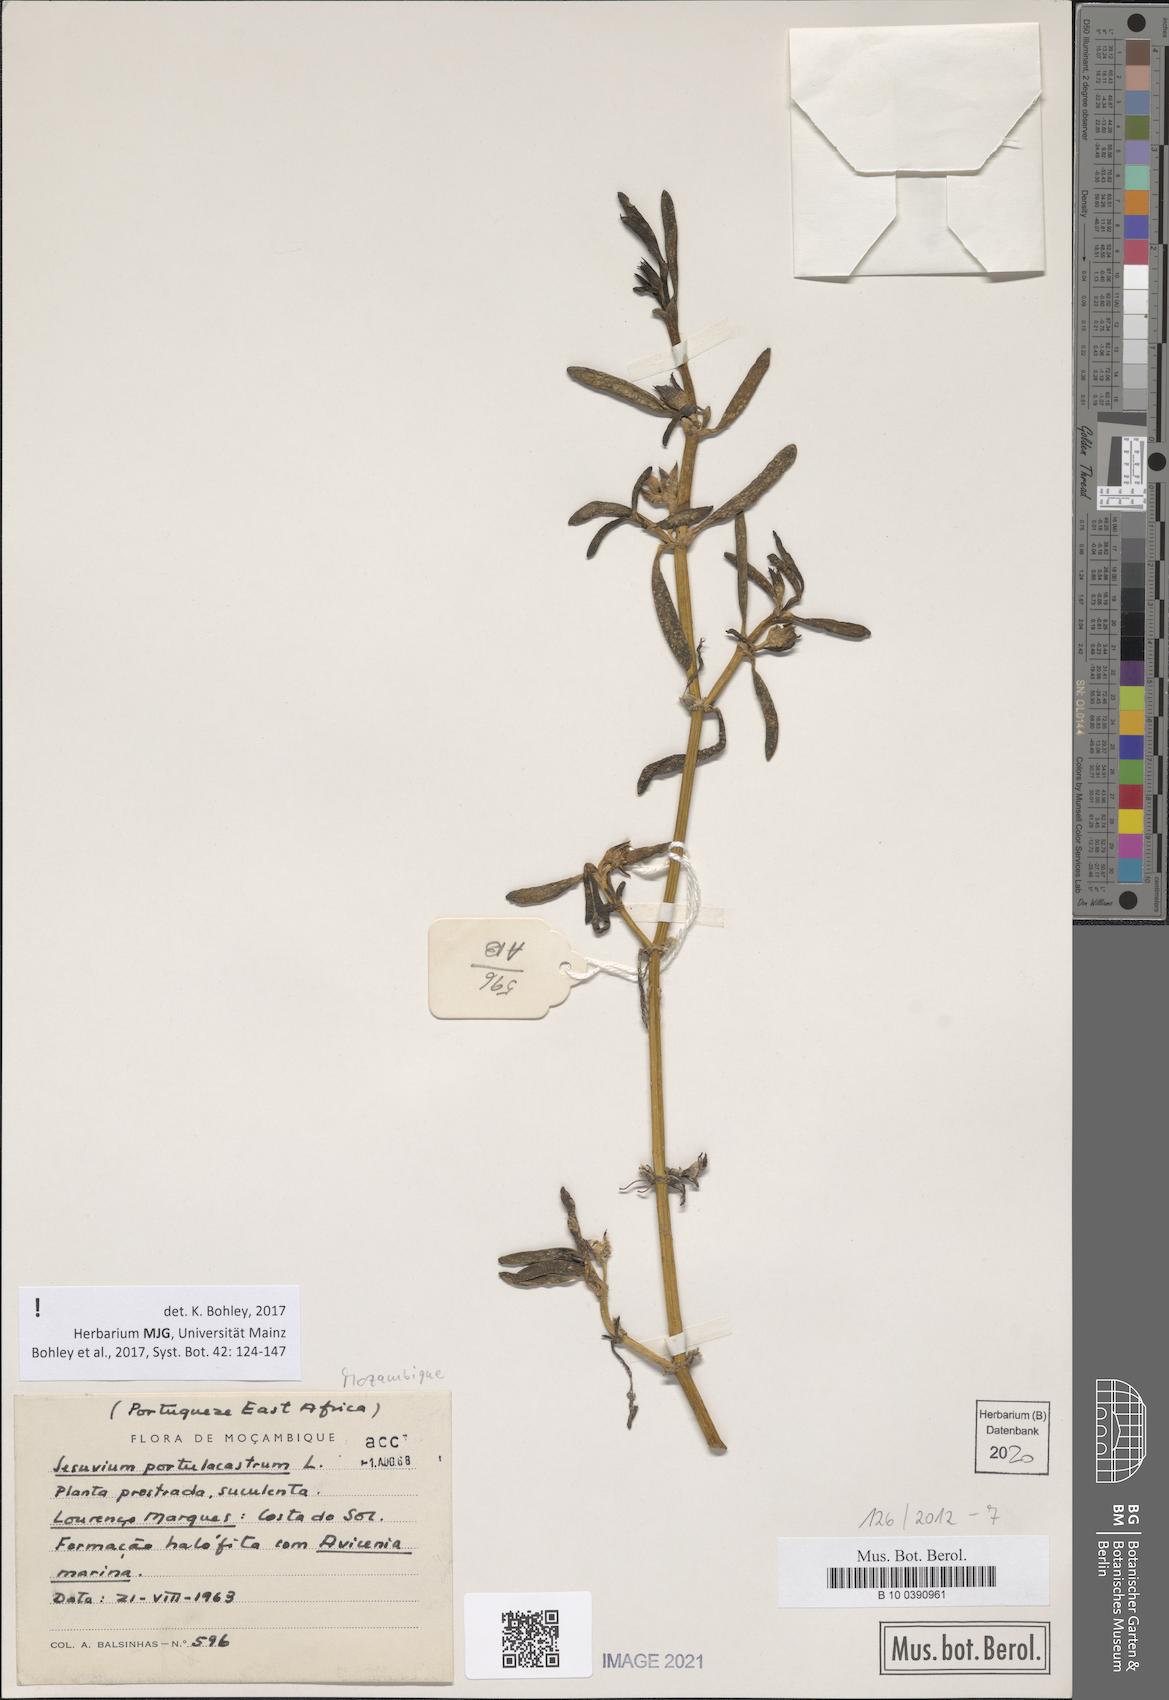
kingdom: Plantae
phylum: Tracheophyta
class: Magnoliopsida
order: Caryophyllales
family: Aizoaceae
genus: Sesuvium
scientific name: Sesuvium portulacastrum
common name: Sea-purslane
